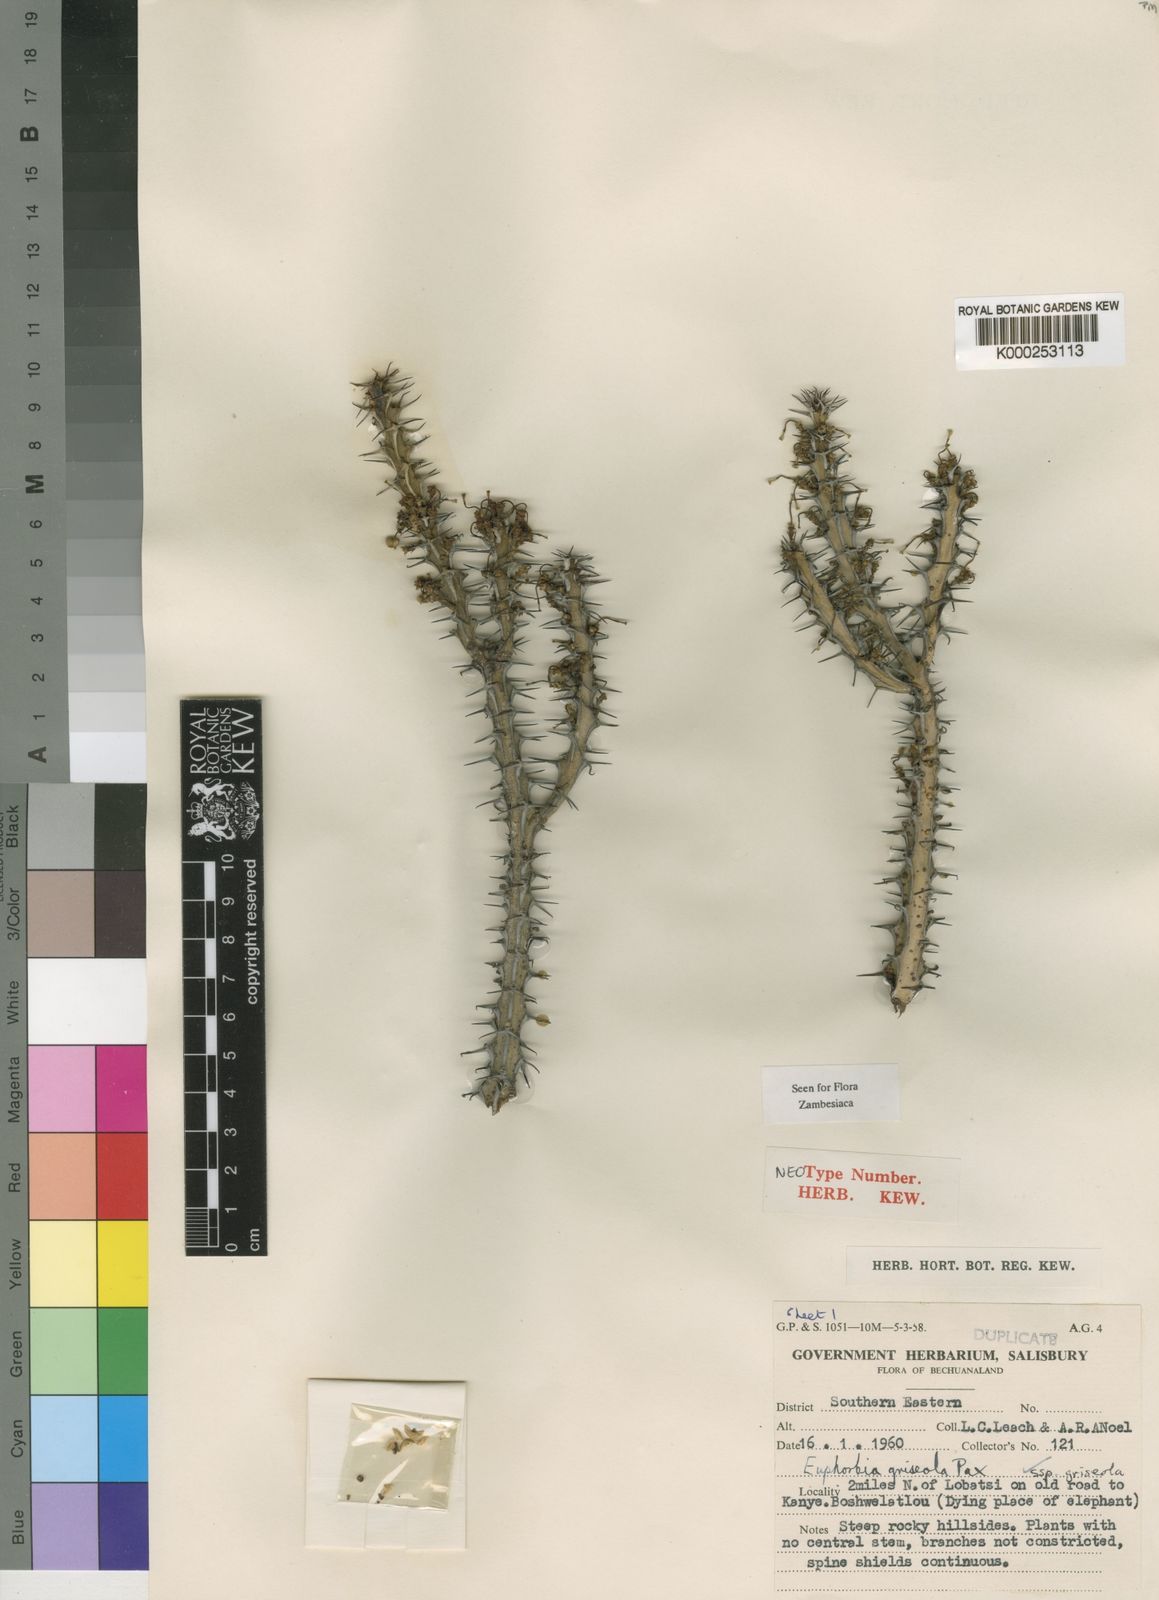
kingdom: Plantae
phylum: Tracheophyta
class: Magnoliopsida
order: Malpighiales
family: Euphorbiaceae
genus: Euphorbia
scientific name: Euphorbia griseola
